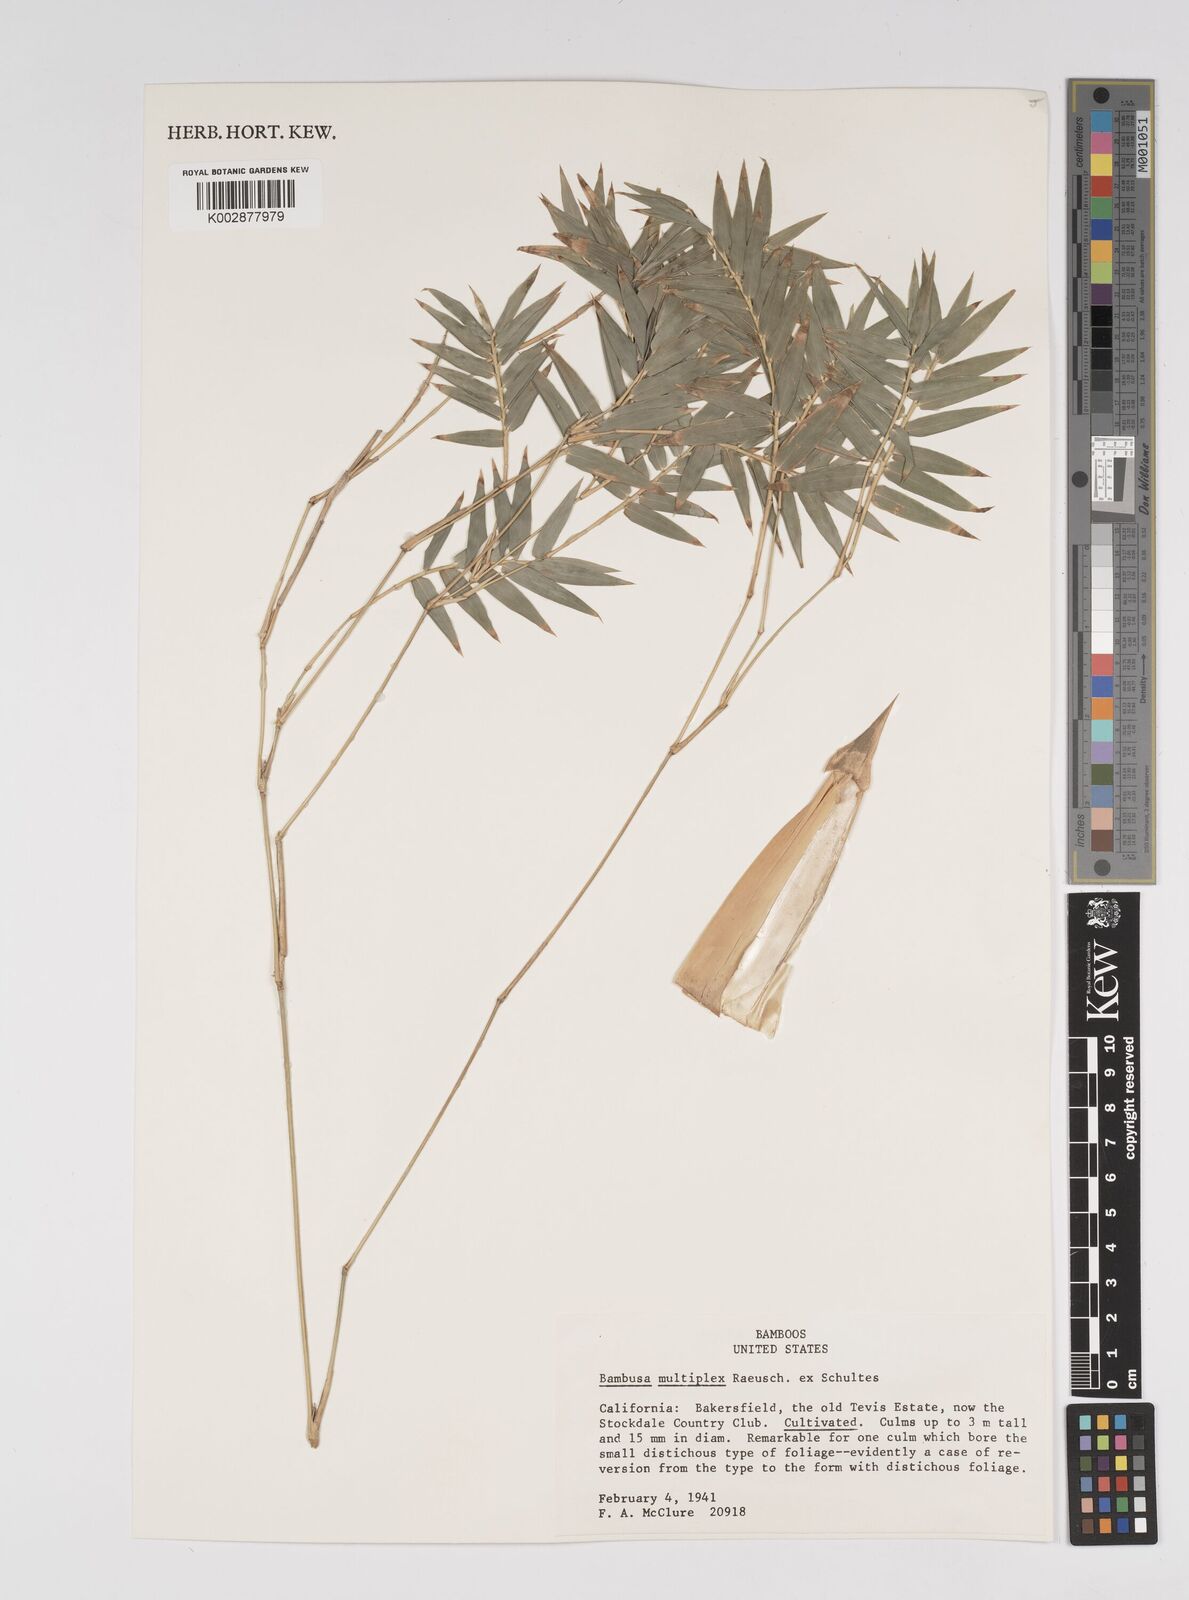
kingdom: Plantae
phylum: Tracheophyta
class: Liliopsida
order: Poales
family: Poaceae
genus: Bambusa
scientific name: Bambusa
